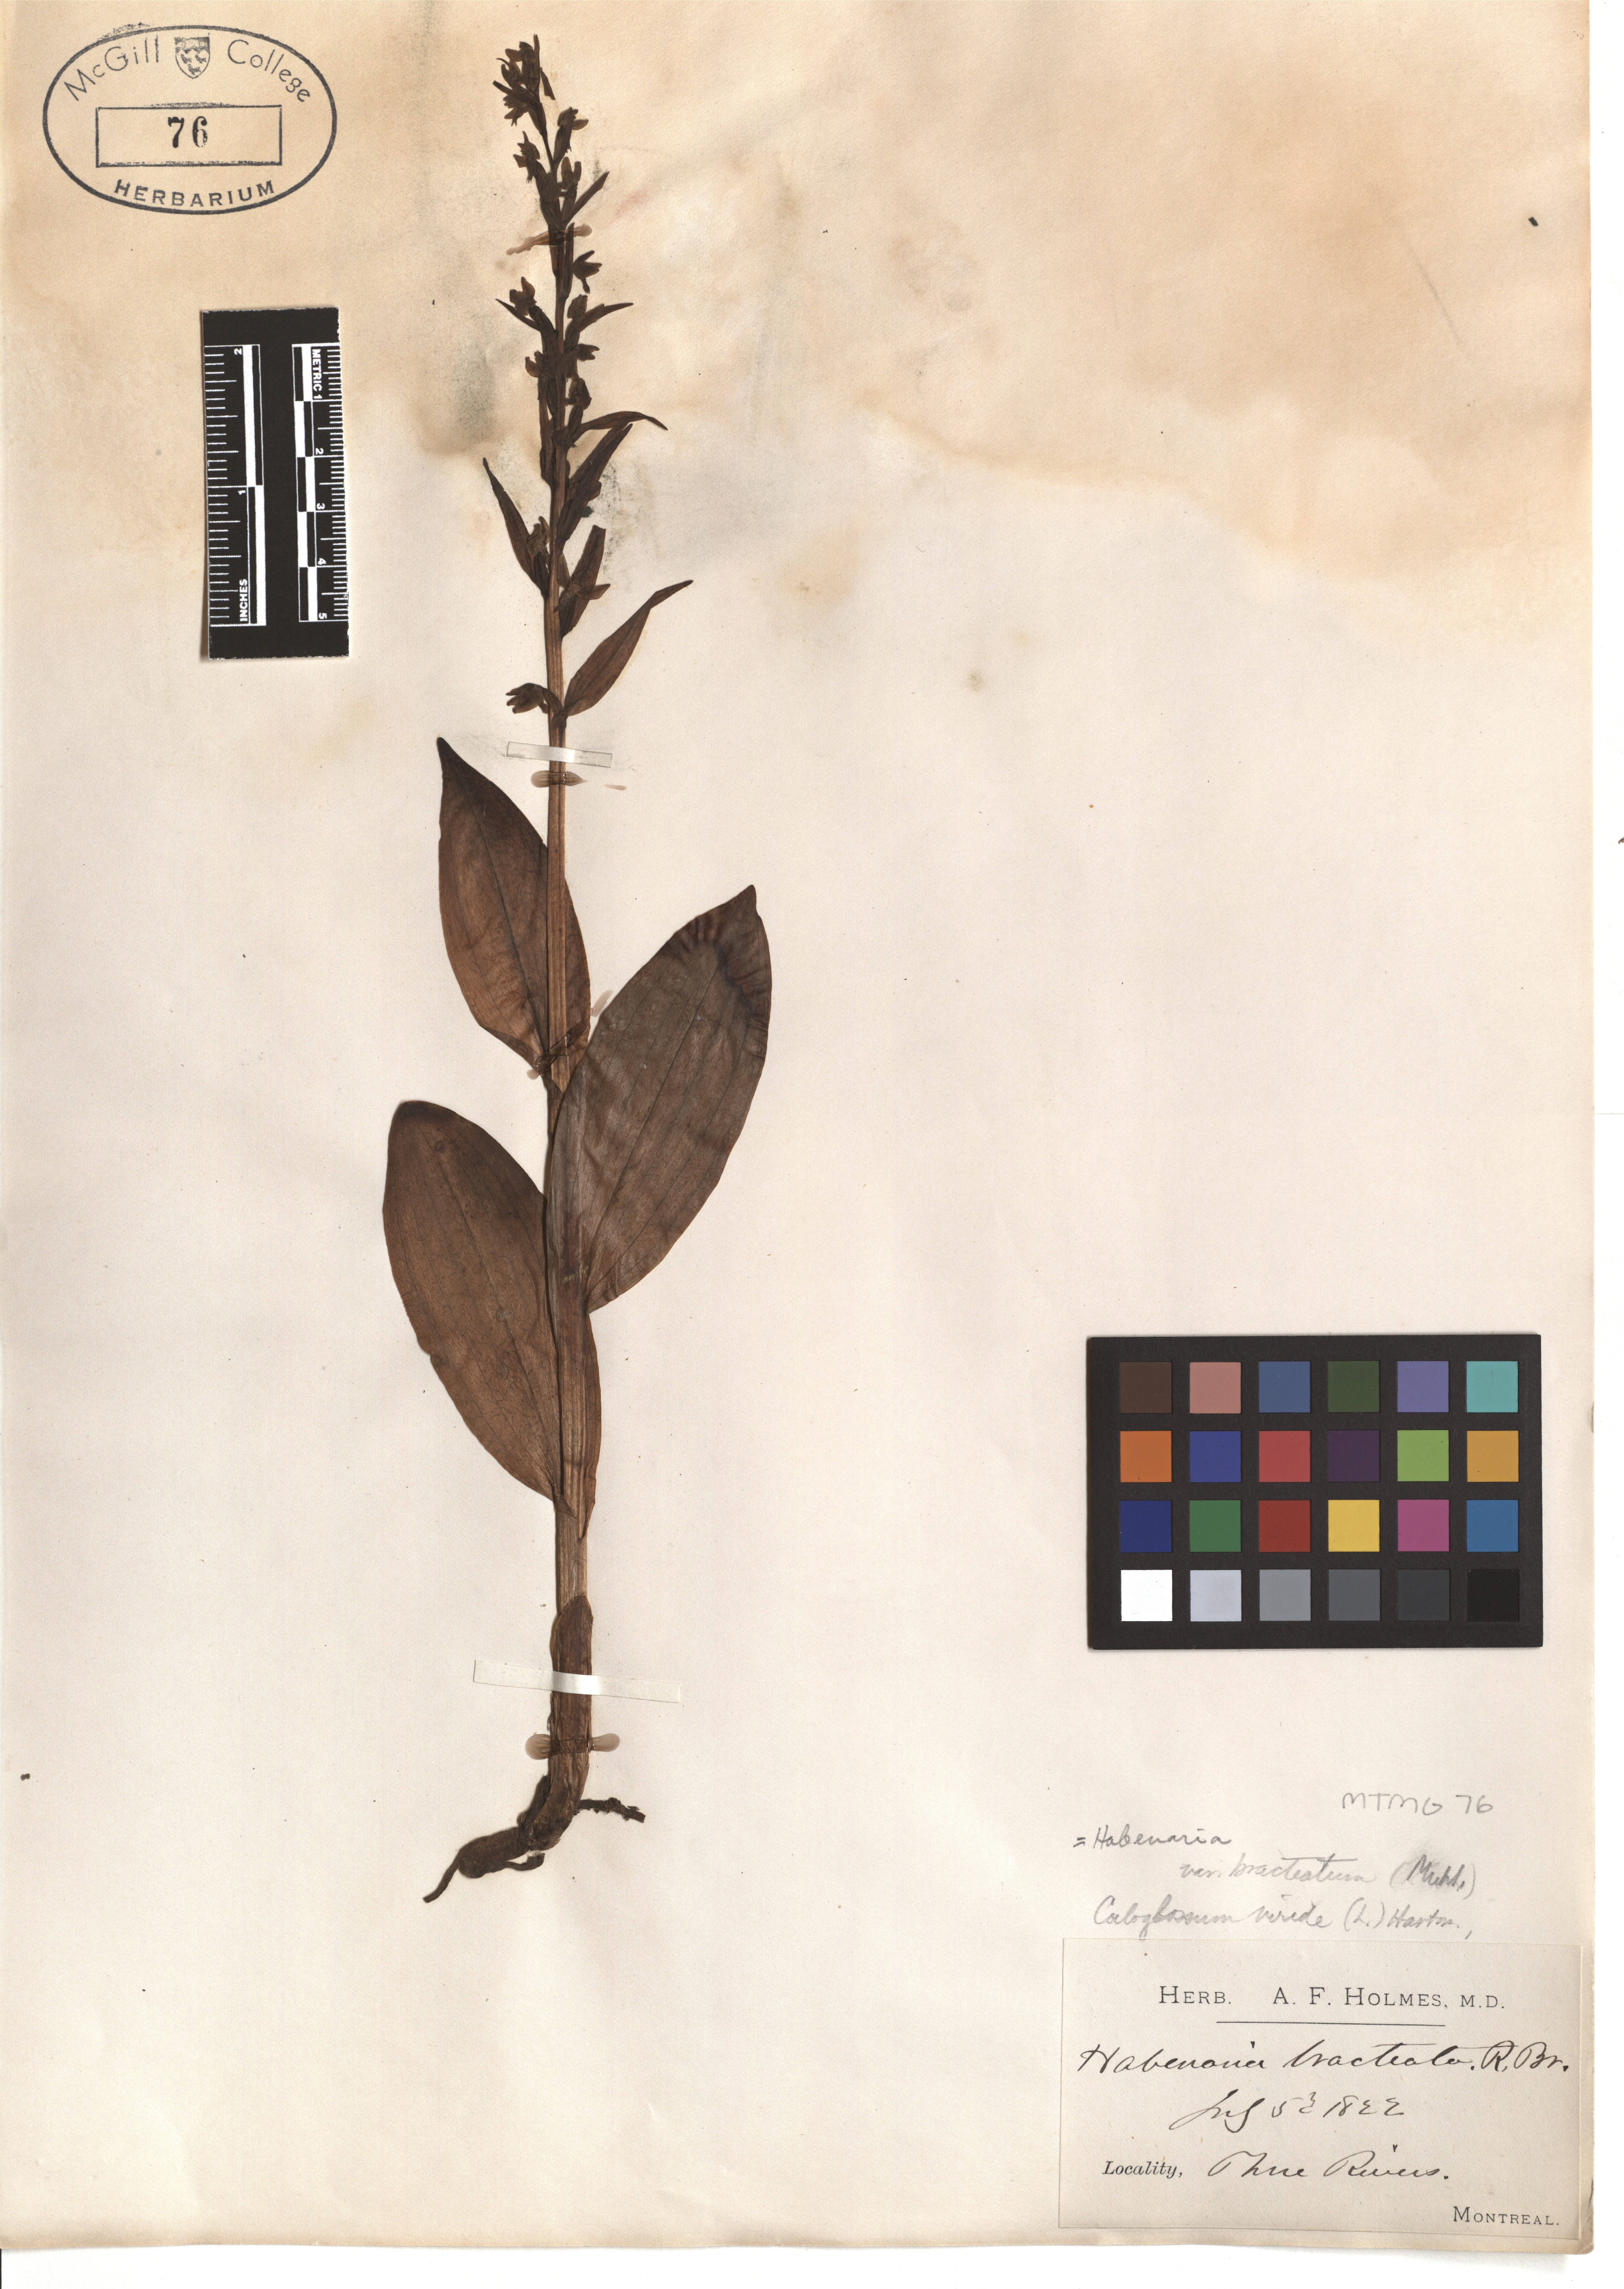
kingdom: Plantae
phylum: Tracheophyta
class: Liliopsida
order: Asparagales
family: Orchidaceae
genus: Dactylorhiza
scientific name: Dactylorhiza viridis
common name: Longbract frog orchid
